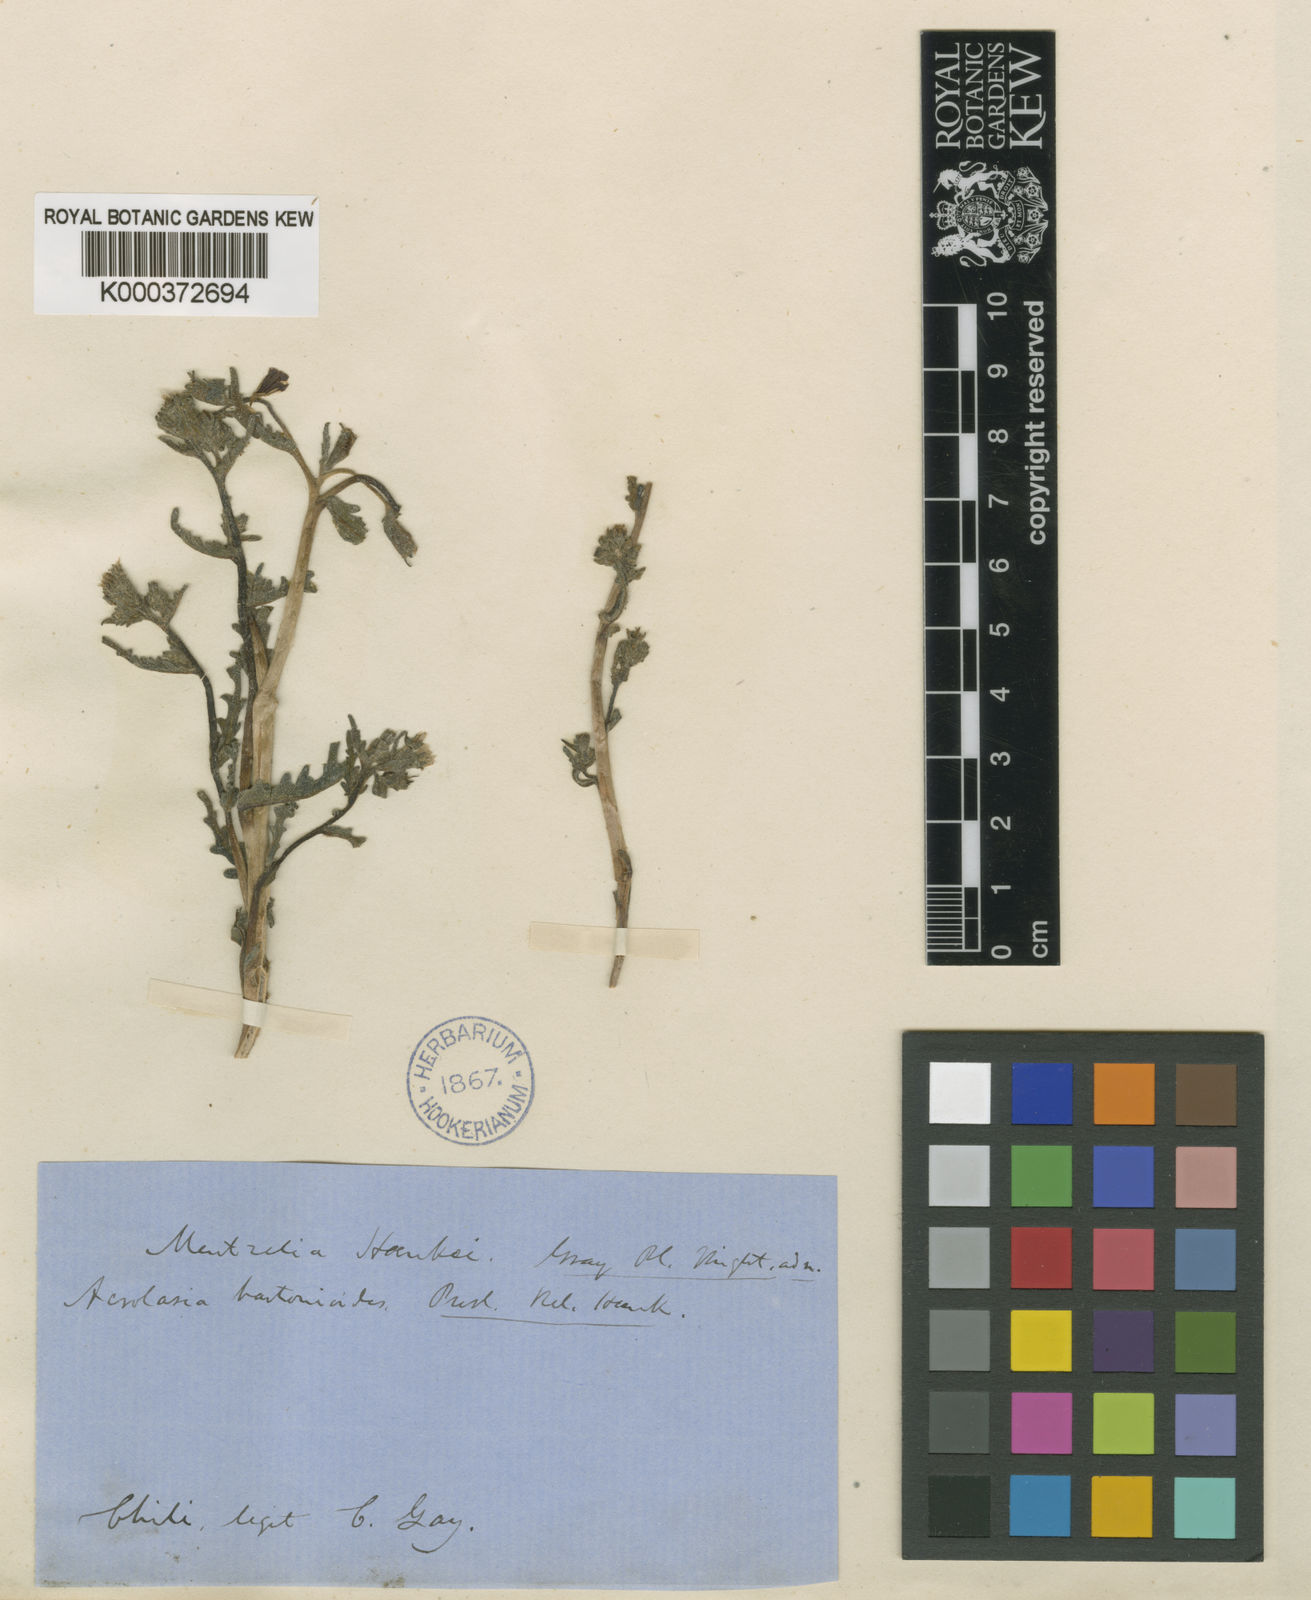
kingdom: Plantae
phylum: Tracheophyta
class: Magnoliopsida
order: Cornales
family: Loasaceae
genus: Mentzelia
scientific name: Mentzelia solieri
